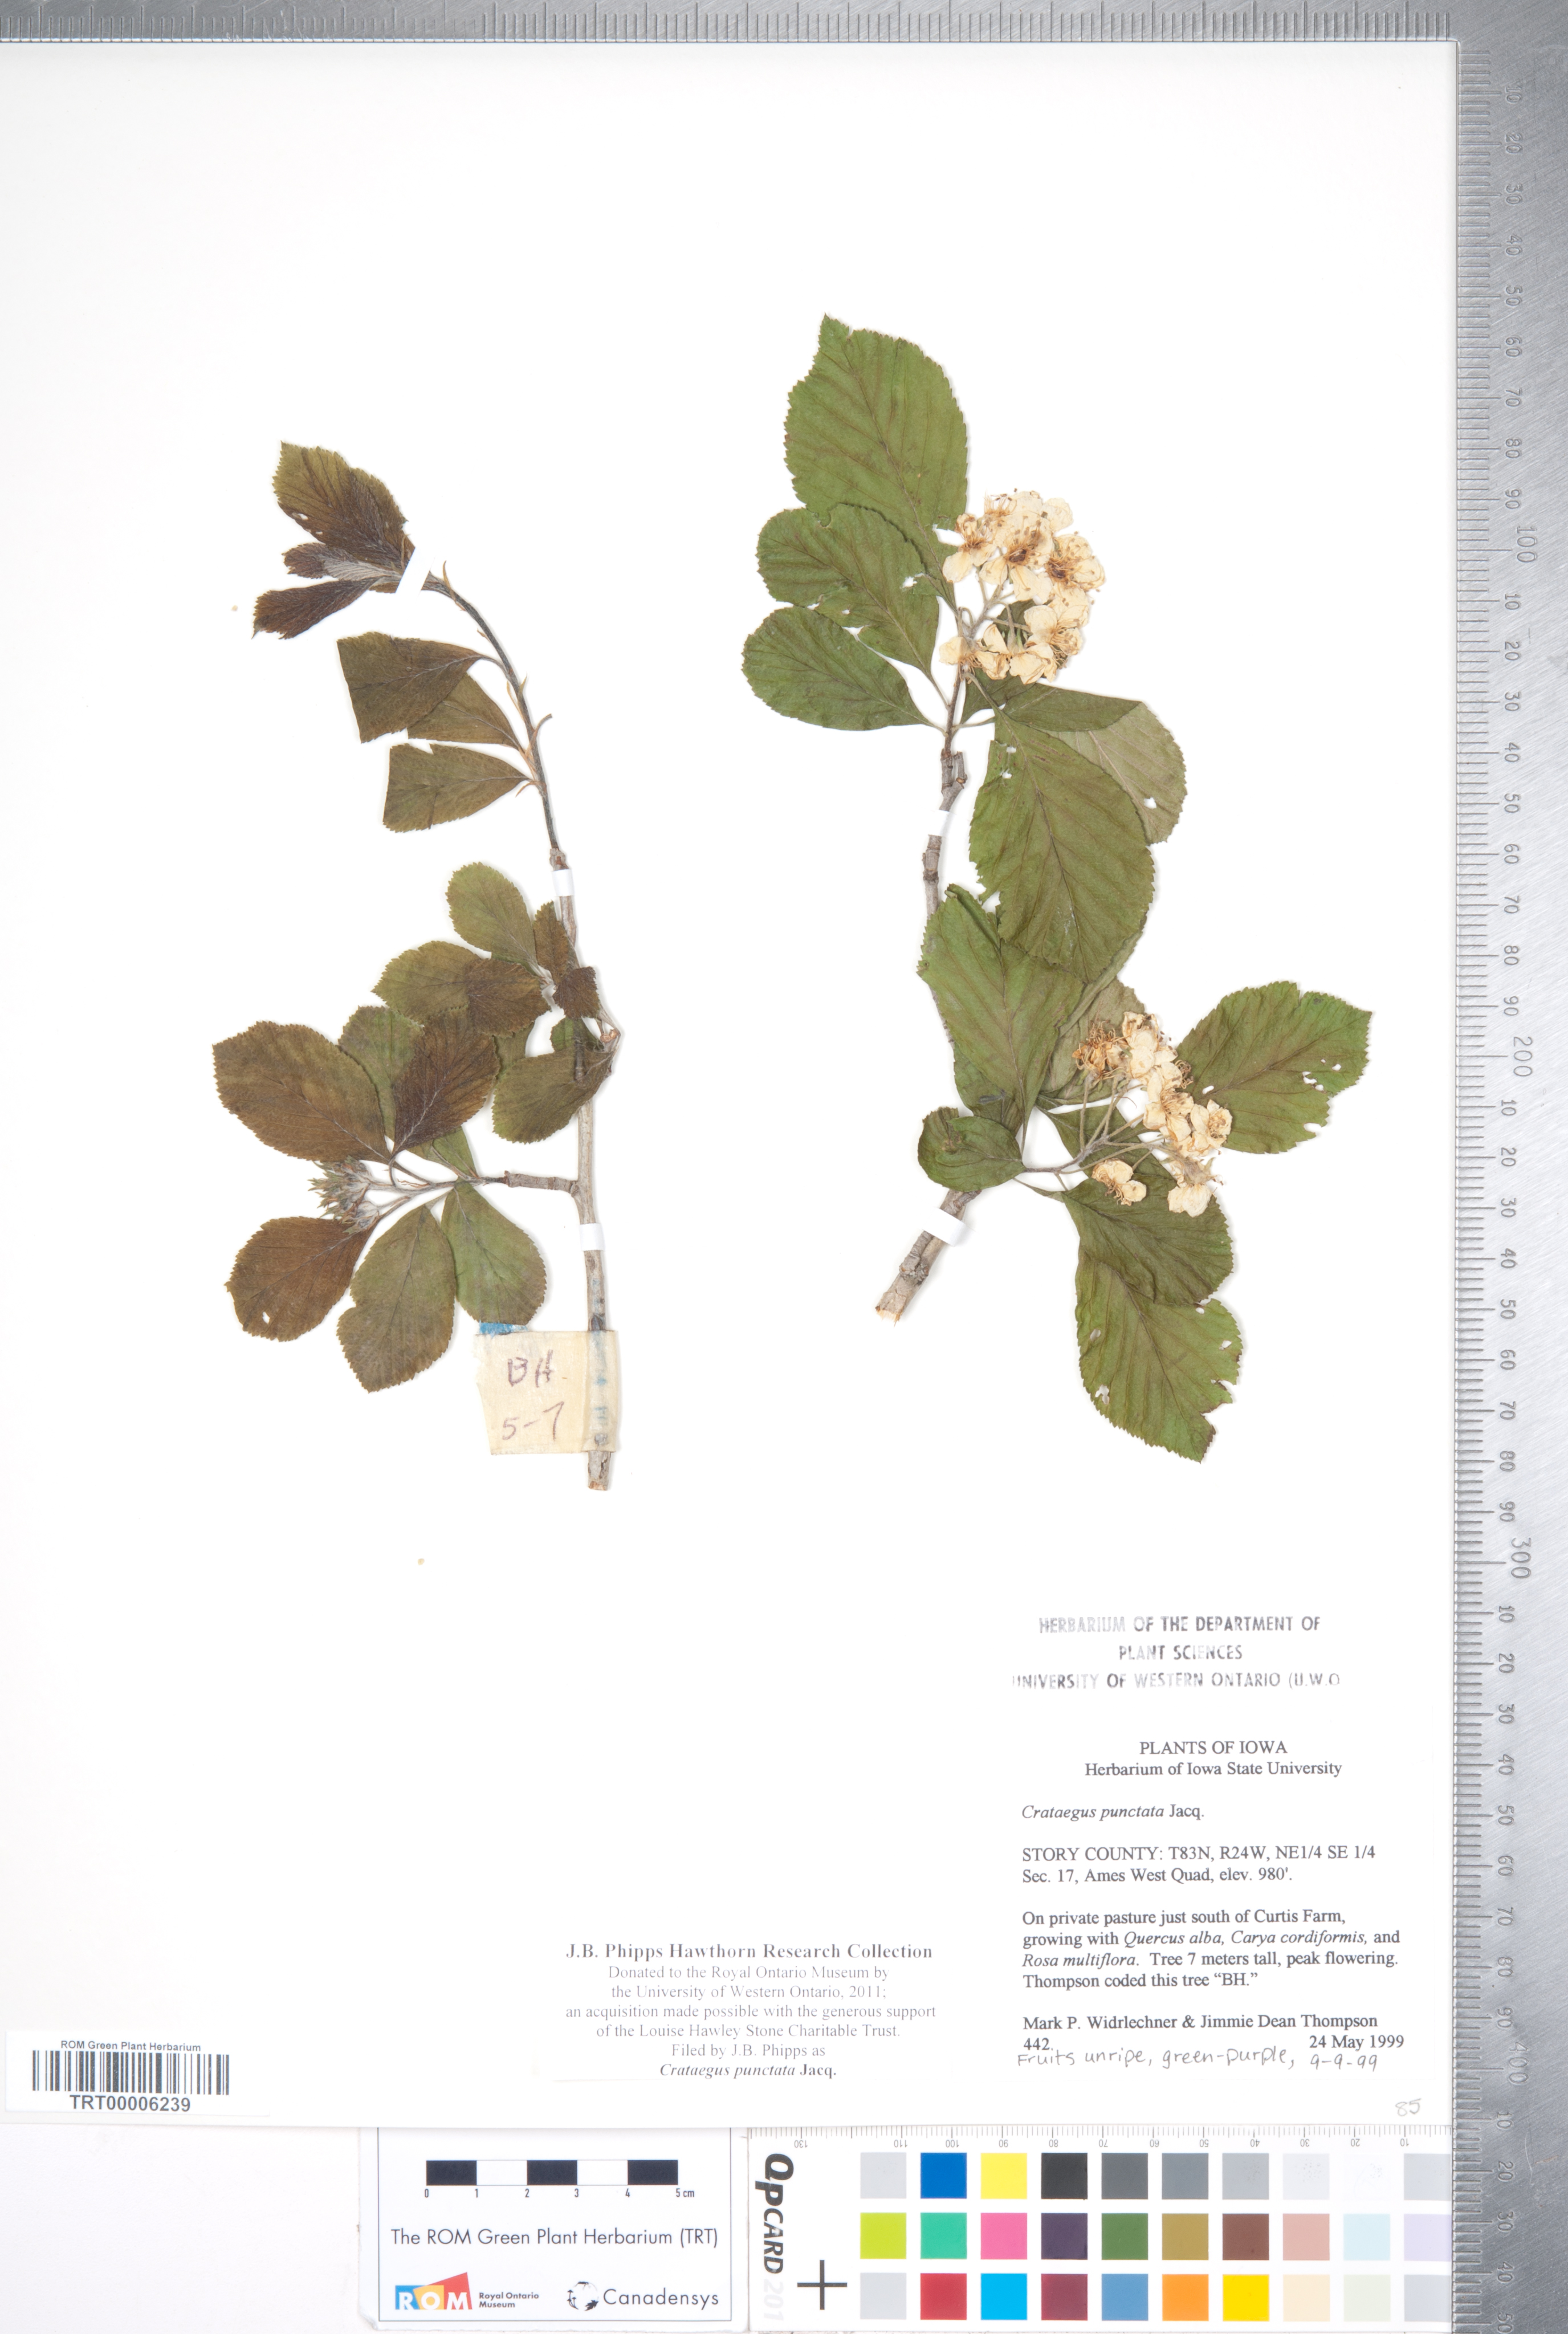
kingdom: Plantae
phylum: Tracheophyta
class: Magnoliopsida
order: Rosales
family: Rosaceae
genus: Crataegus
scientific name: Crataegus punctata
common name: Dotted hawthorn
